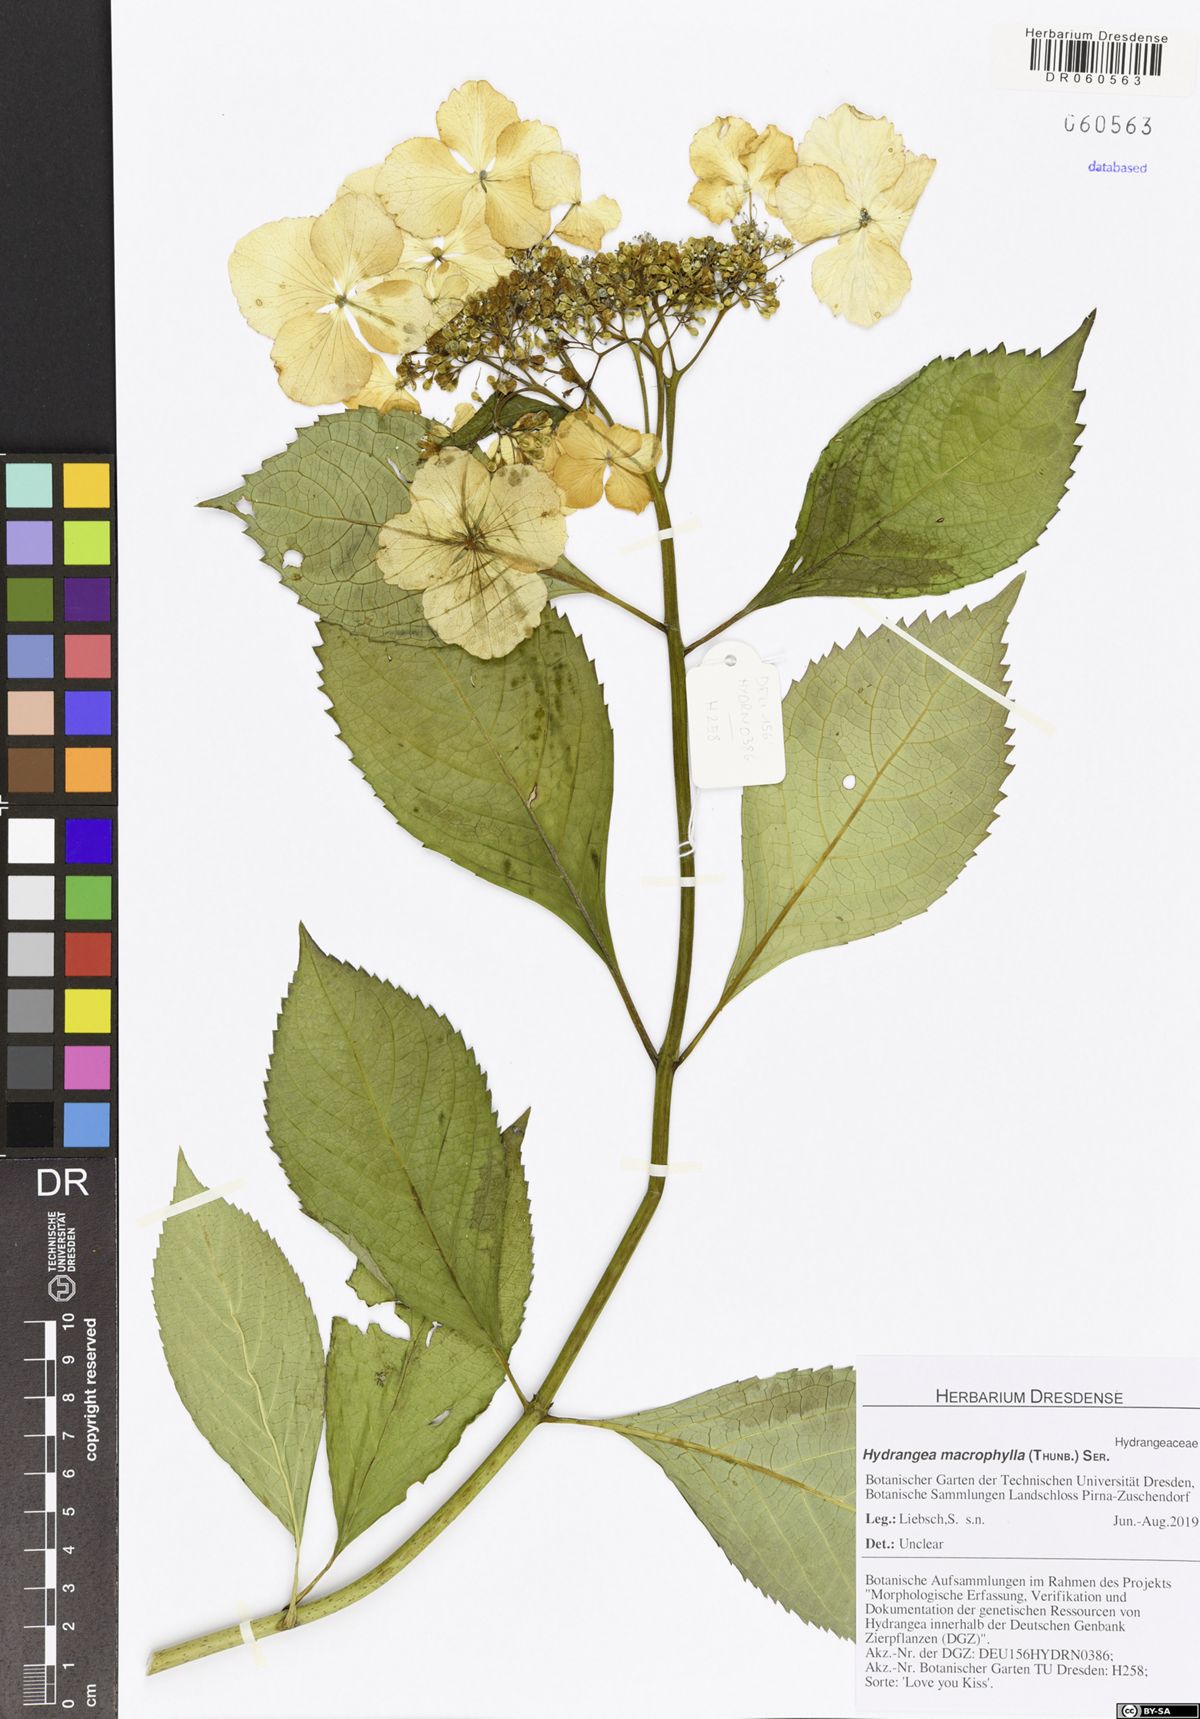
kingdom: Plantae
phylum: Tracheophyta
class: Magnoliopsida
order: Cornales
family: Hydrangeaceae
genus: Hydrangea
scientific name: Hydrangea macrophylla
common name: Hydrangea
